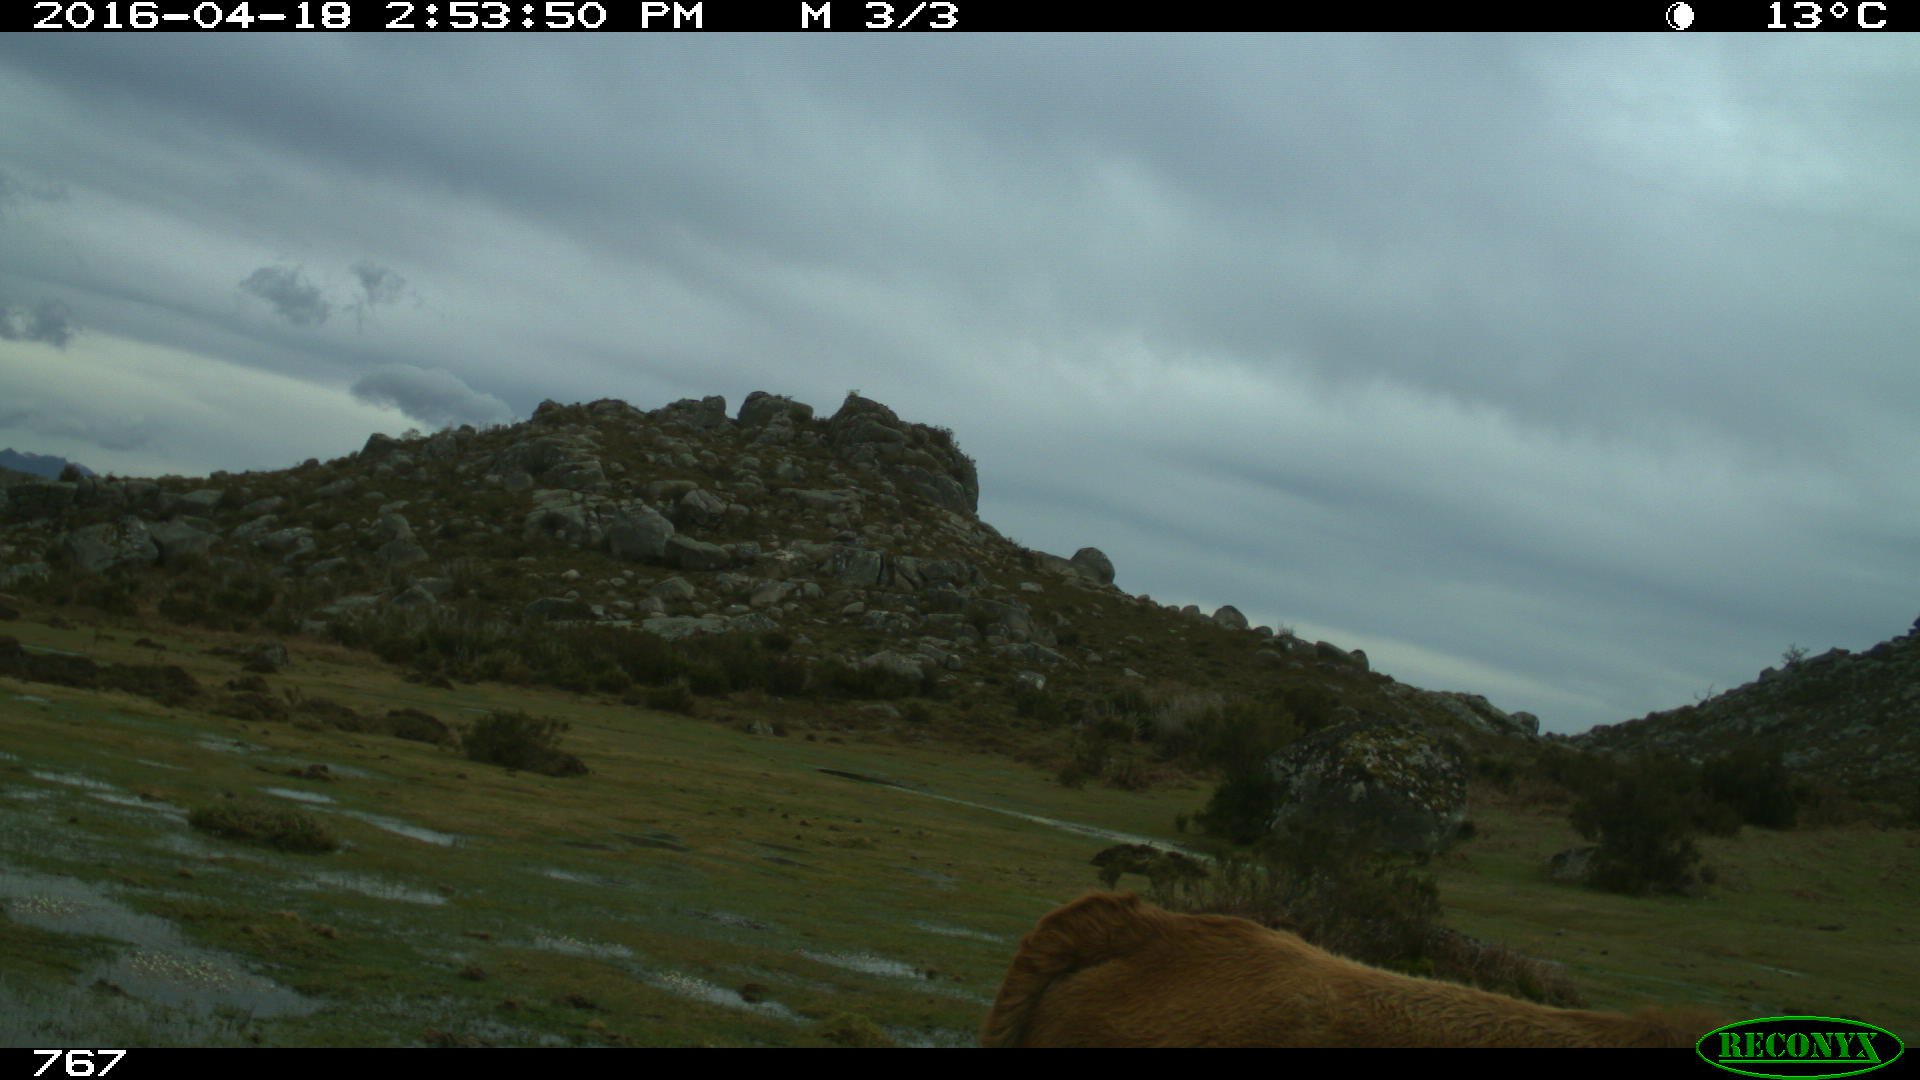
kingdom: Animalia
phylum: Chordata
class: Mammalia
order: Artiodactyla
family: Bovidae
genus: Bos
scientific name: Bos taurus
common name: Domesticated cattle
